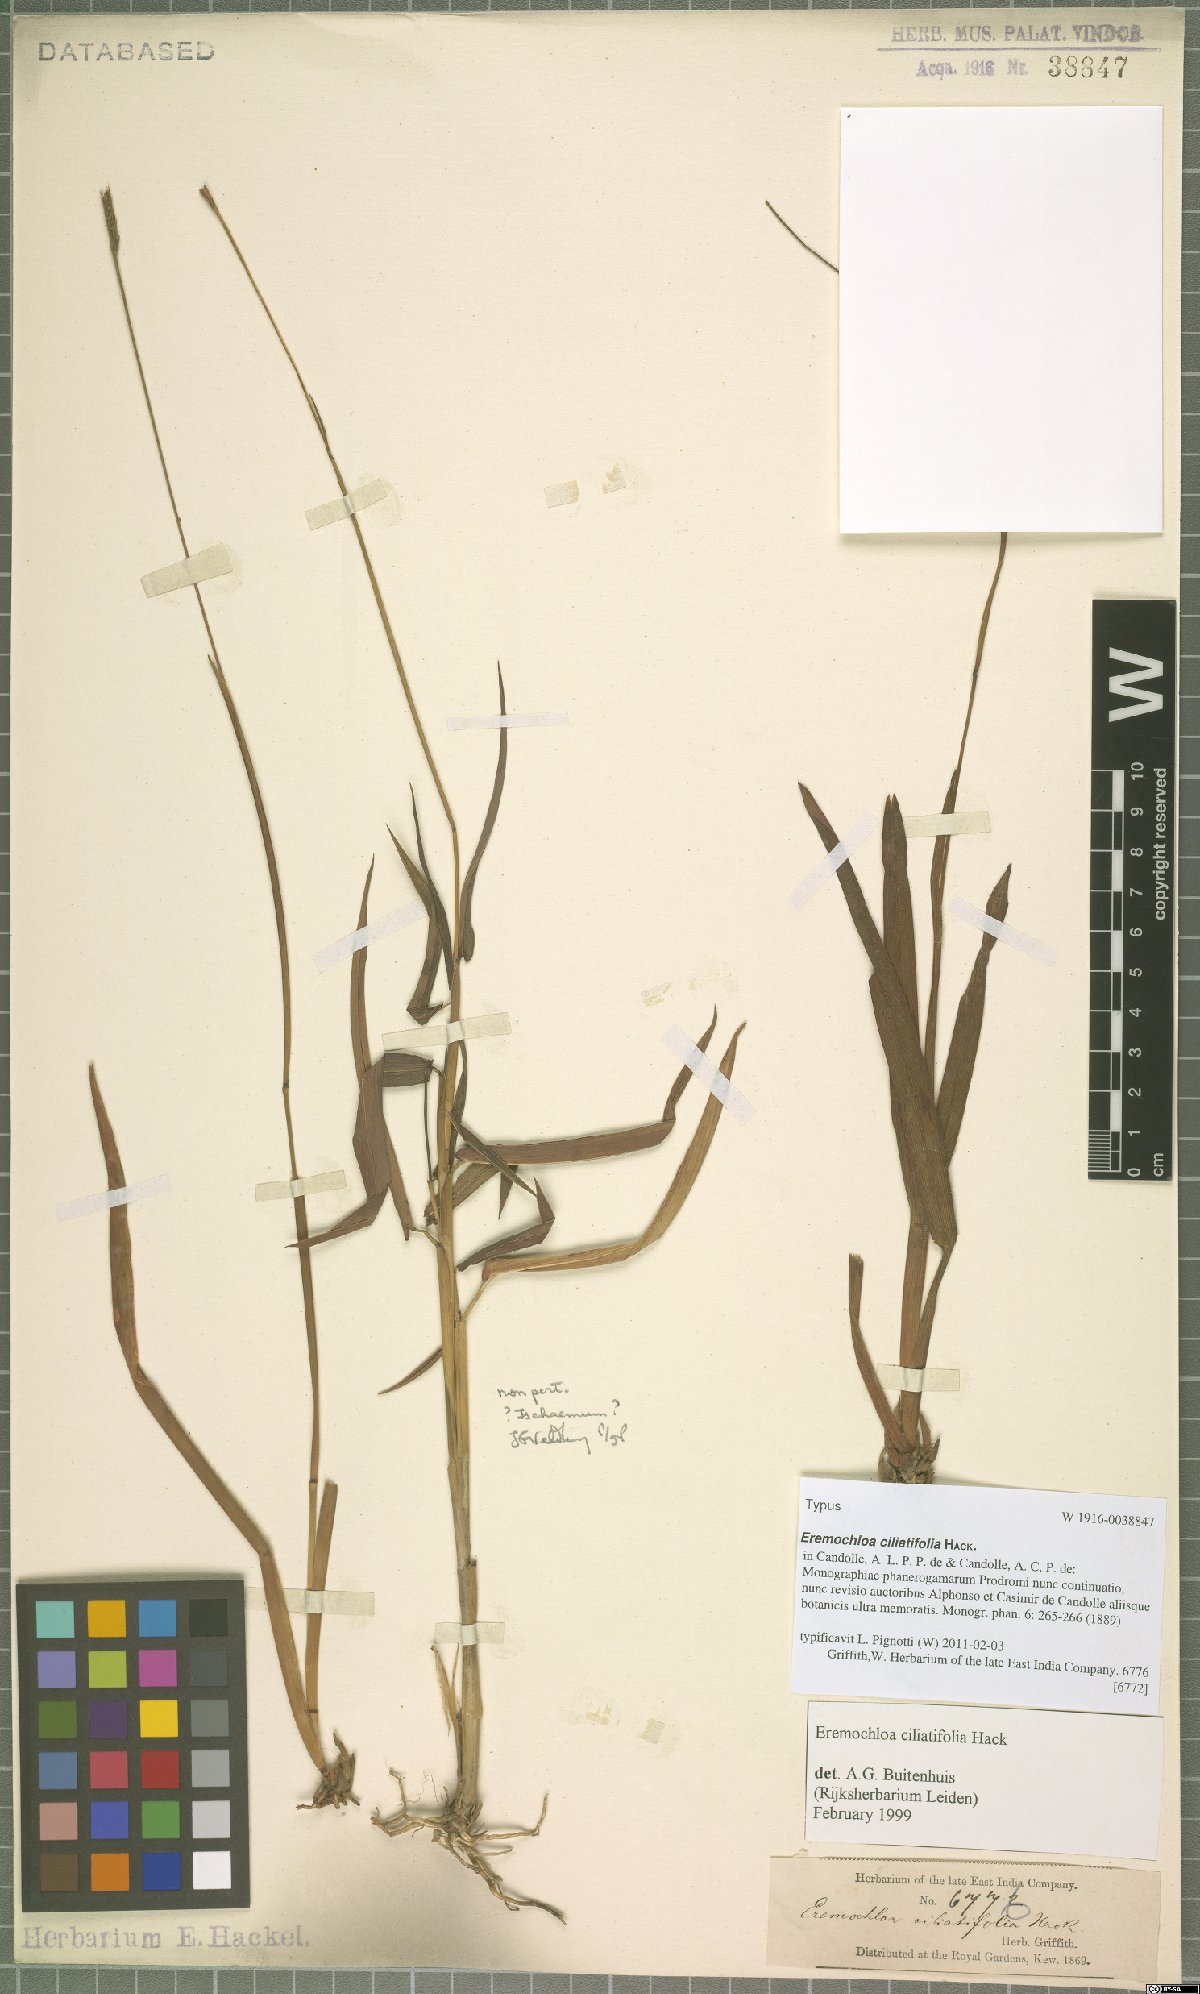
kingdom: Plantae
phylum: Tracheophyta
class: Liliopsida
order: Poales
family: Poaceae
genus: Eremochloa
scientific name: Eremochloa ciliatifolia
